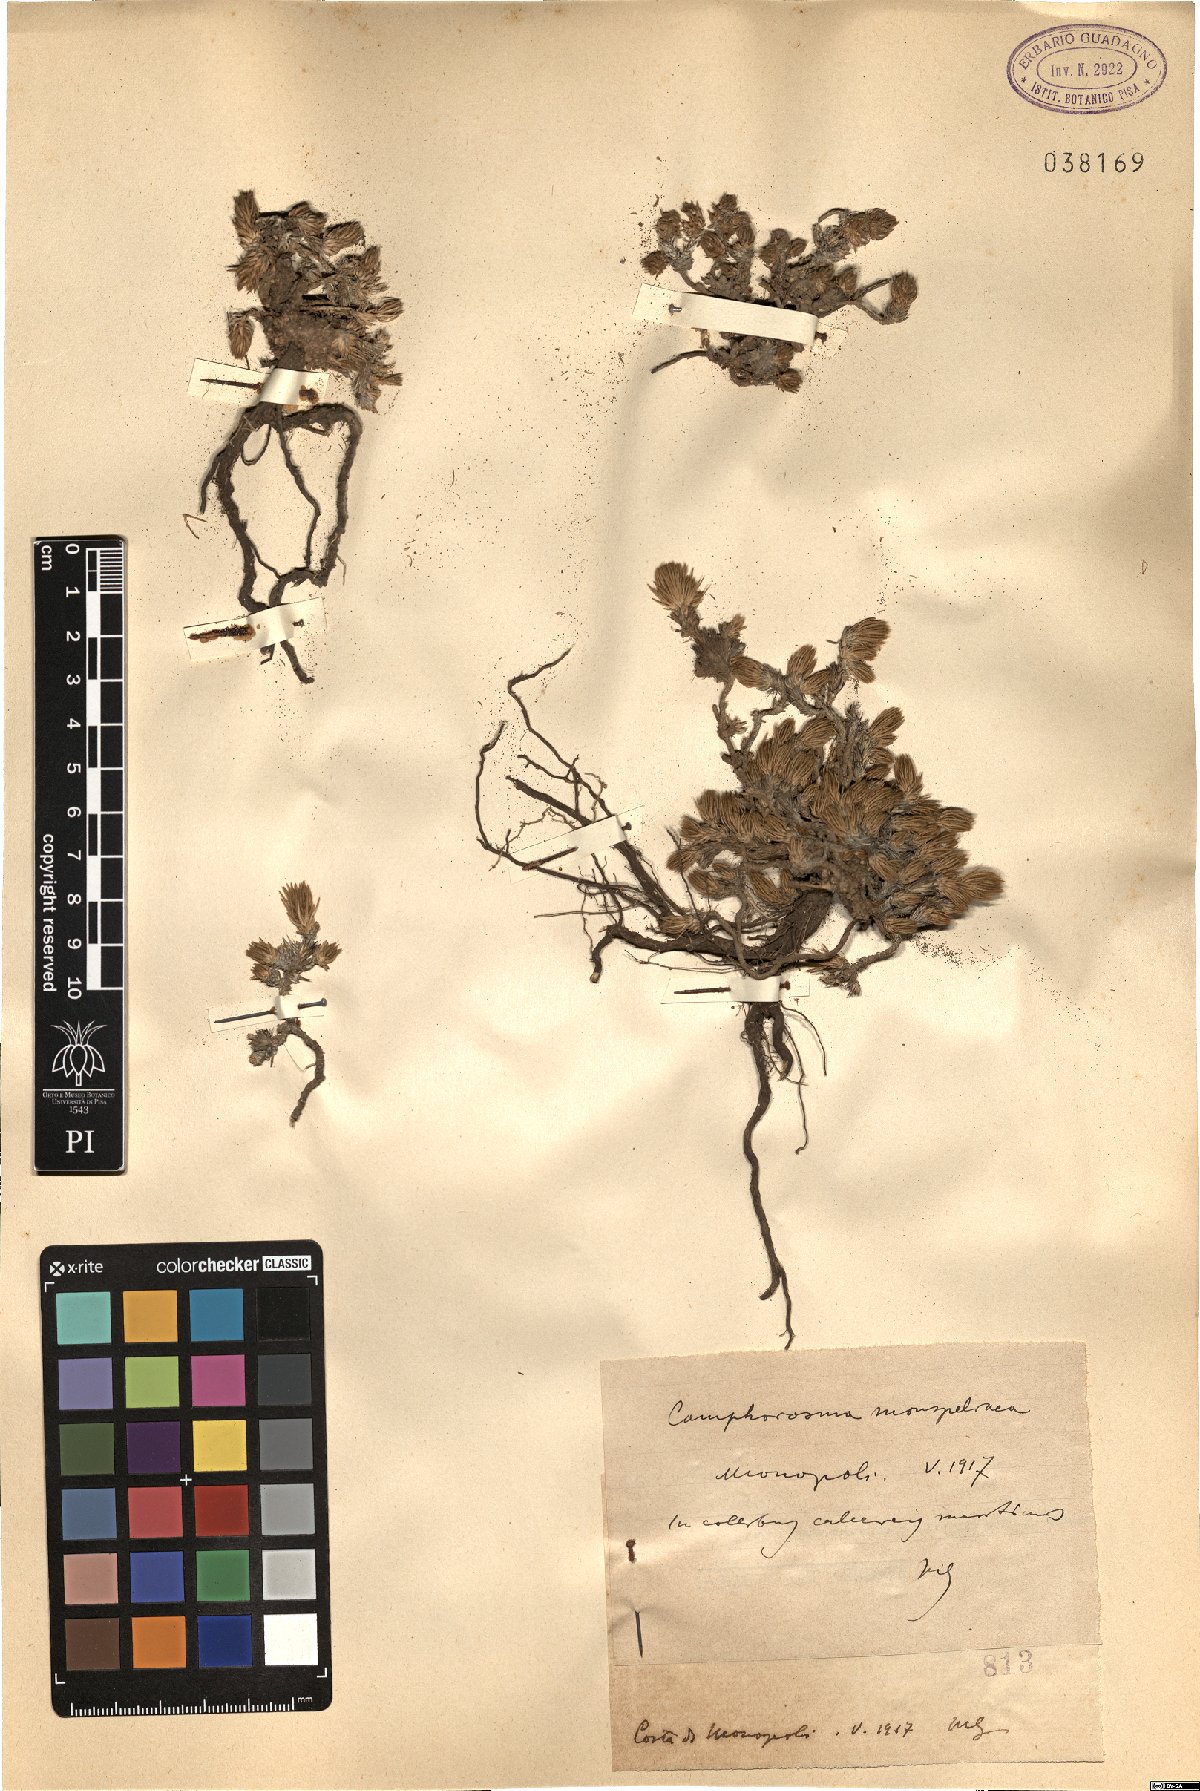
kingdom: Plantae
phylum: Tracheophyta
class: Magnoliopsida
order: Caryophyllales
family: Amaranthaceae
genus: Camphorosma
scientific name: Camphorosma monspeliaca
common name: Camphorfume
